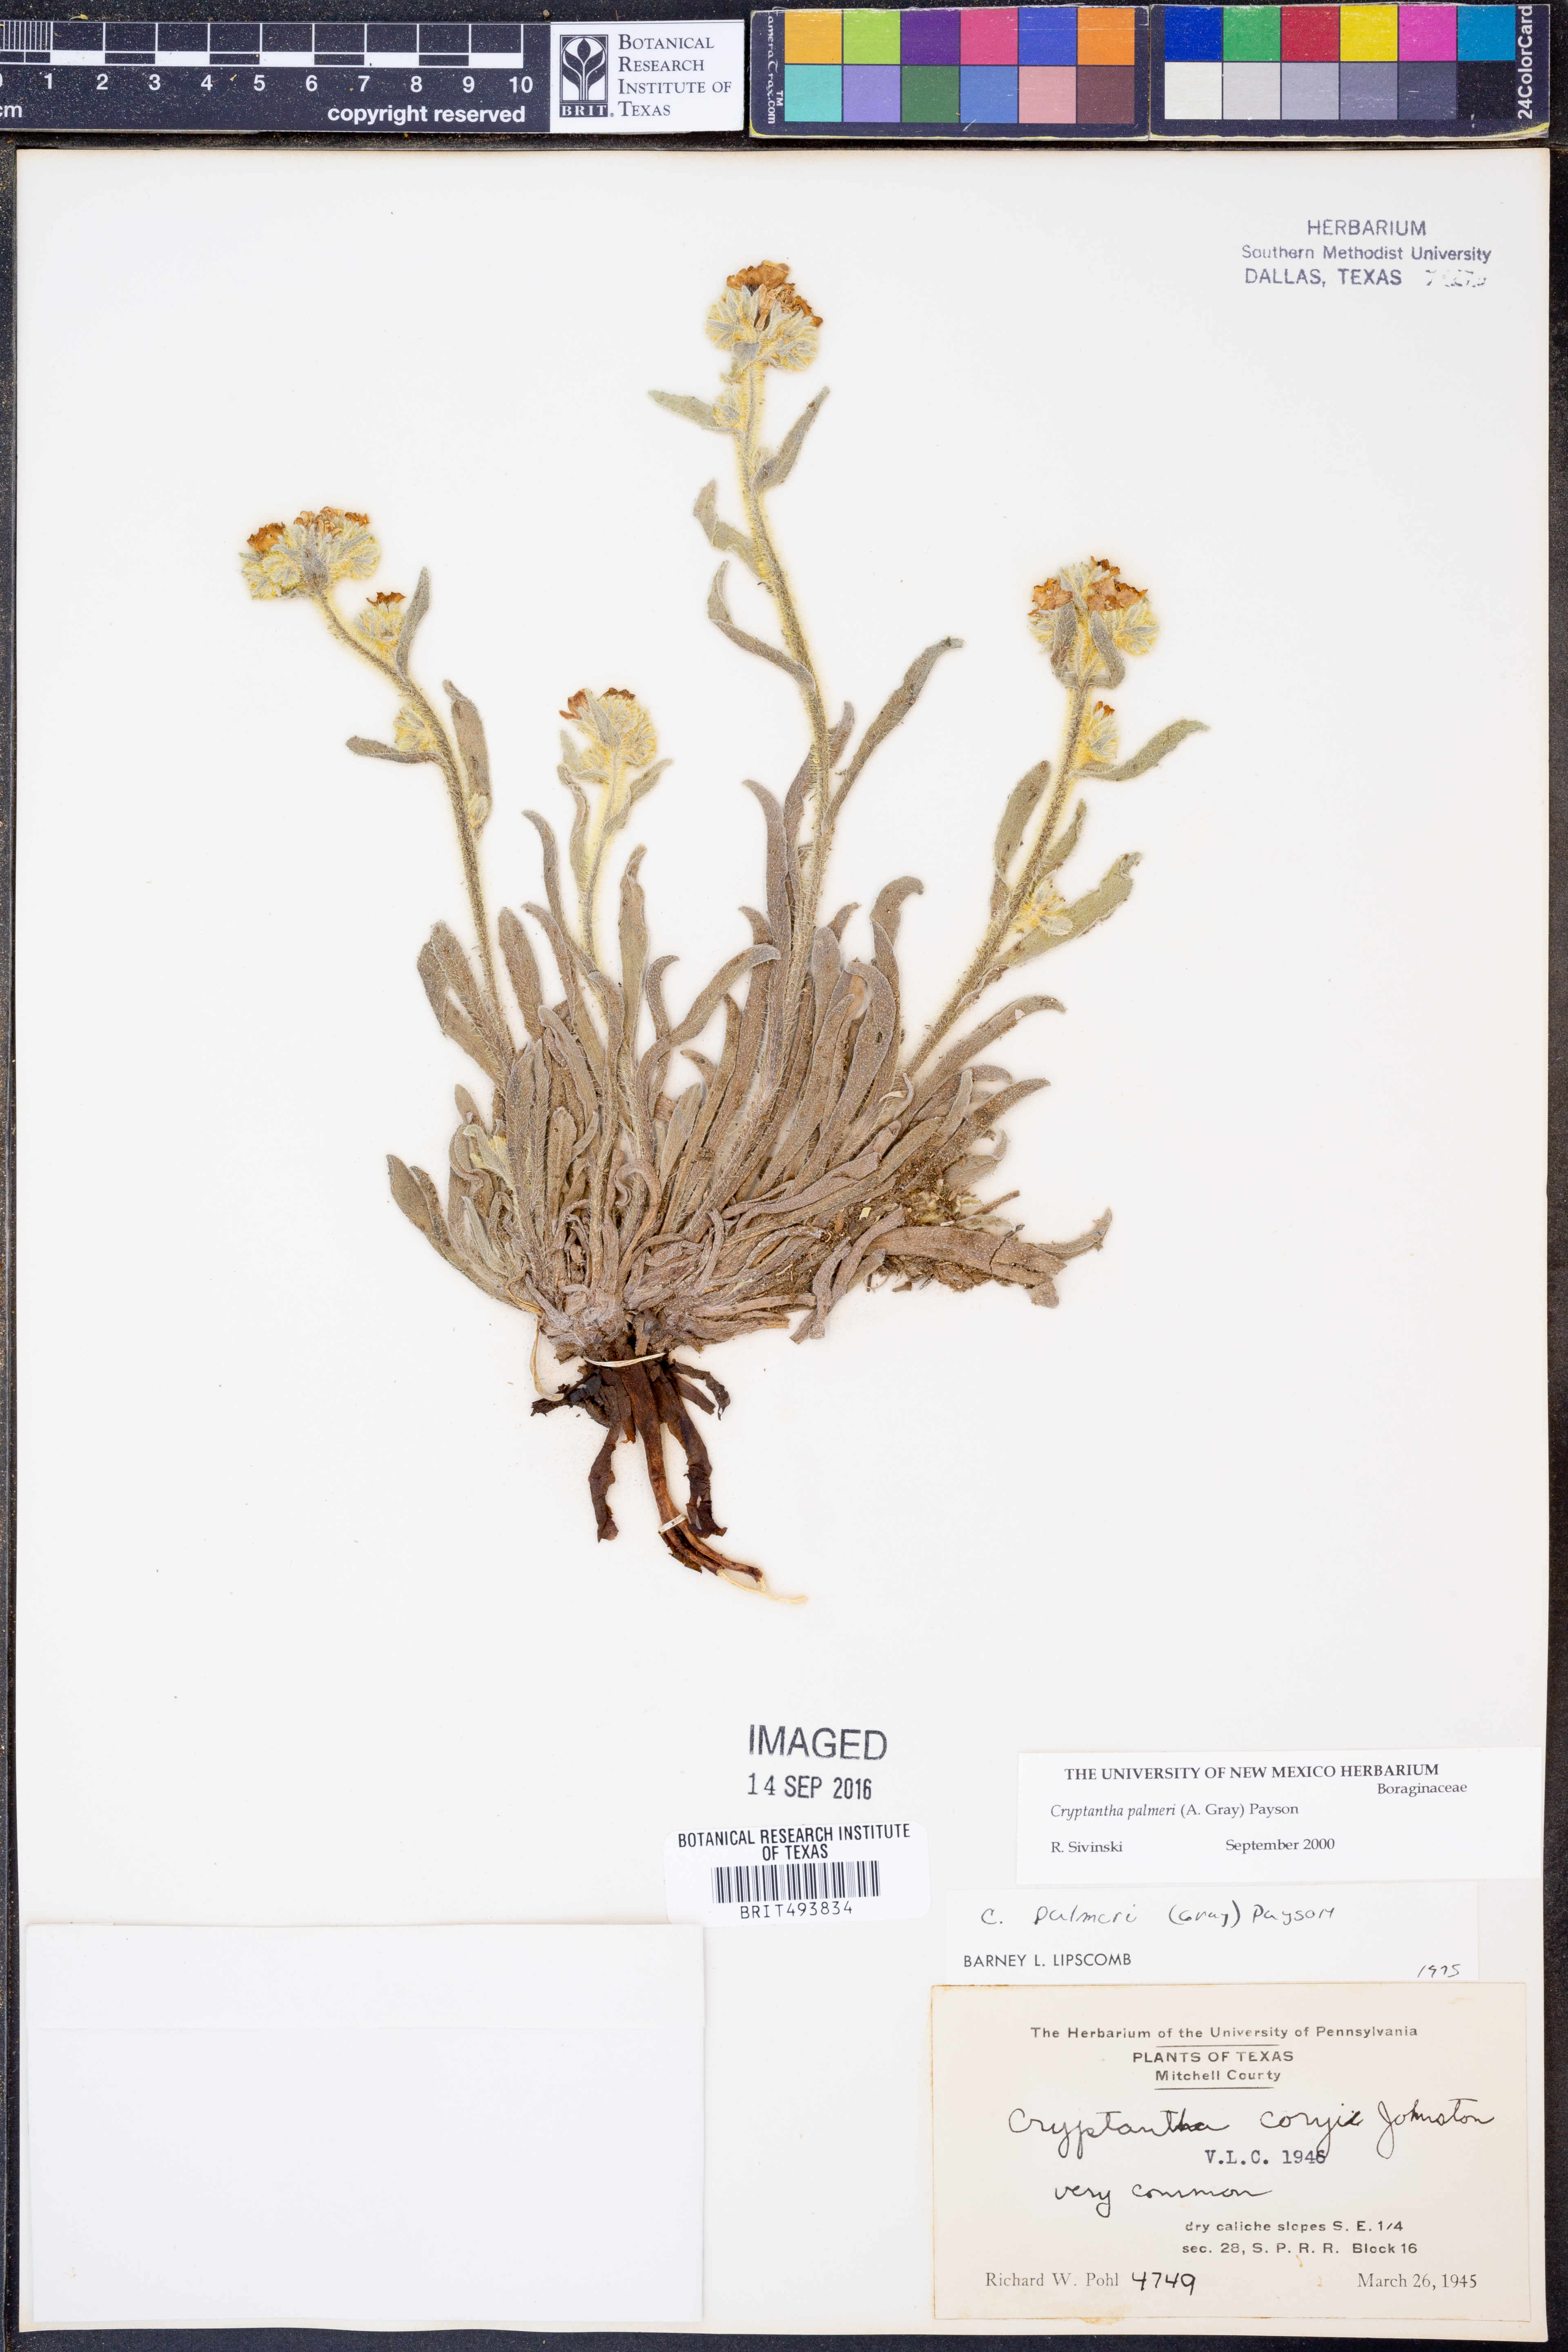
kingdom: Plantae
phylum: Tracheophyta
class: Magnoliopsida
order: Boraginales
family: Boraginaceae
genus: Oreocarya
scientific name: Oreocarya palmeri
